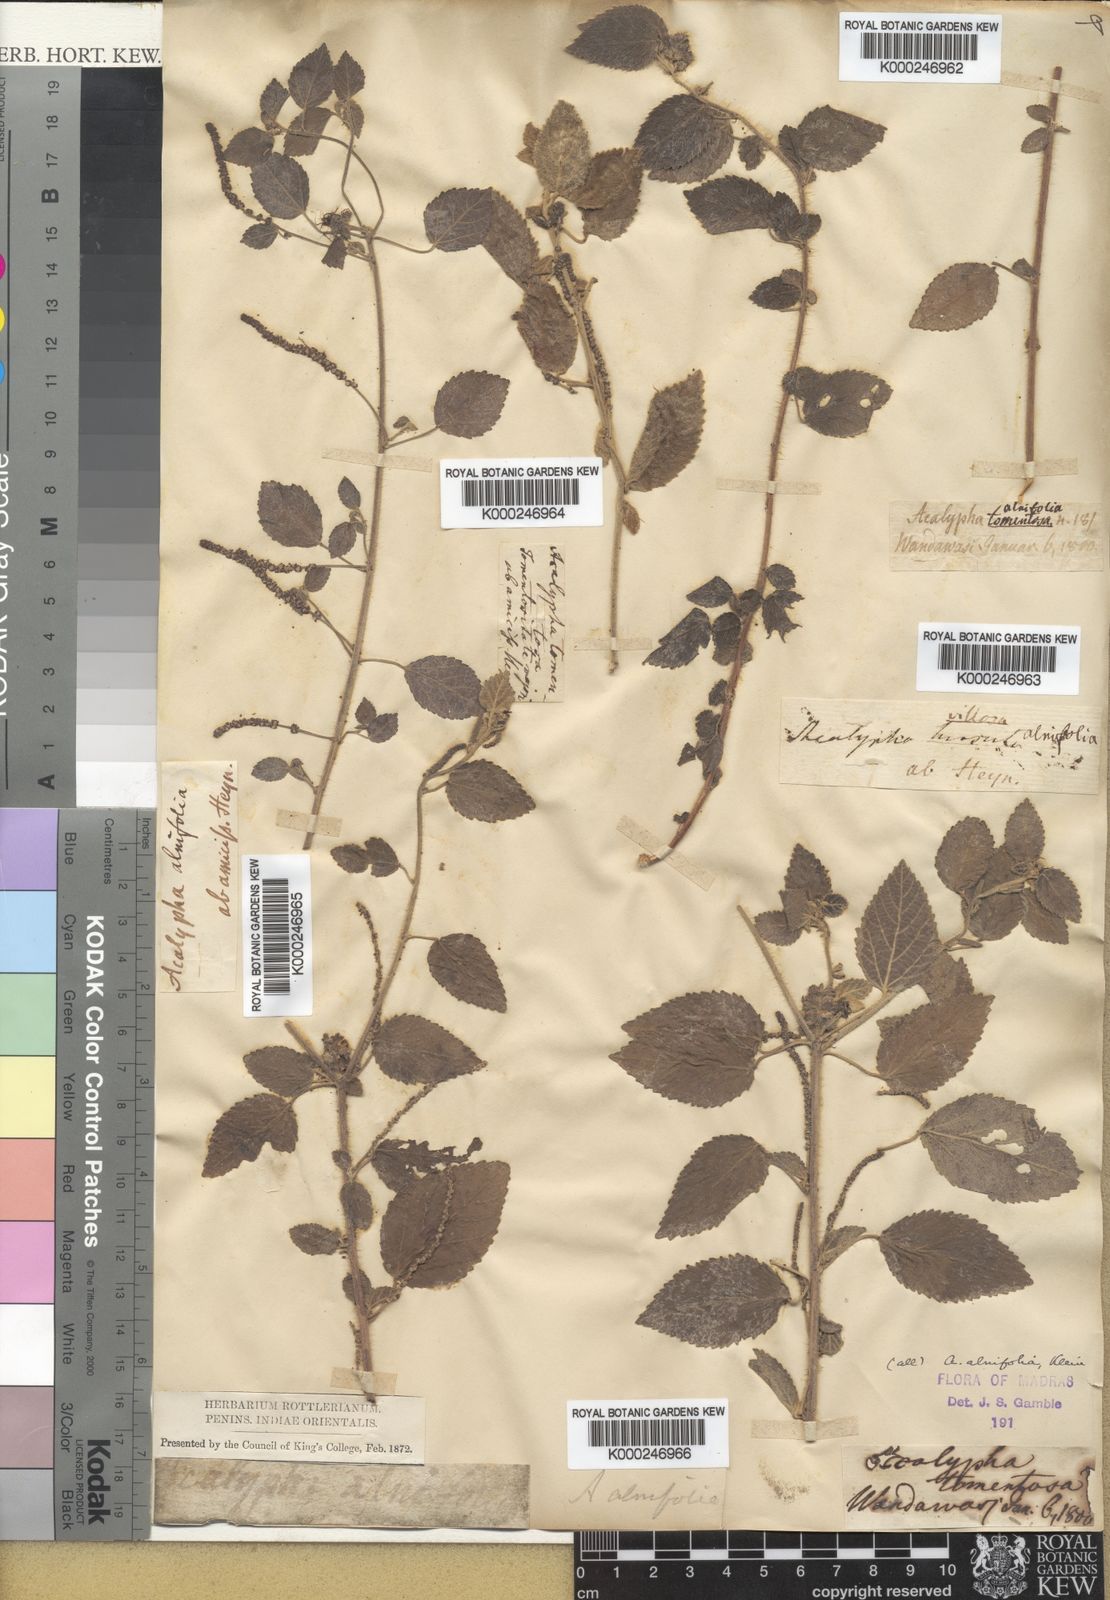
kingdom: Plantae
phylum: Tracheophyta
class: Magnoliopsida
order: Malpighiales
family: Euphorbiaceae
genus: Acalypha
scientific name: Acalypha capitata
